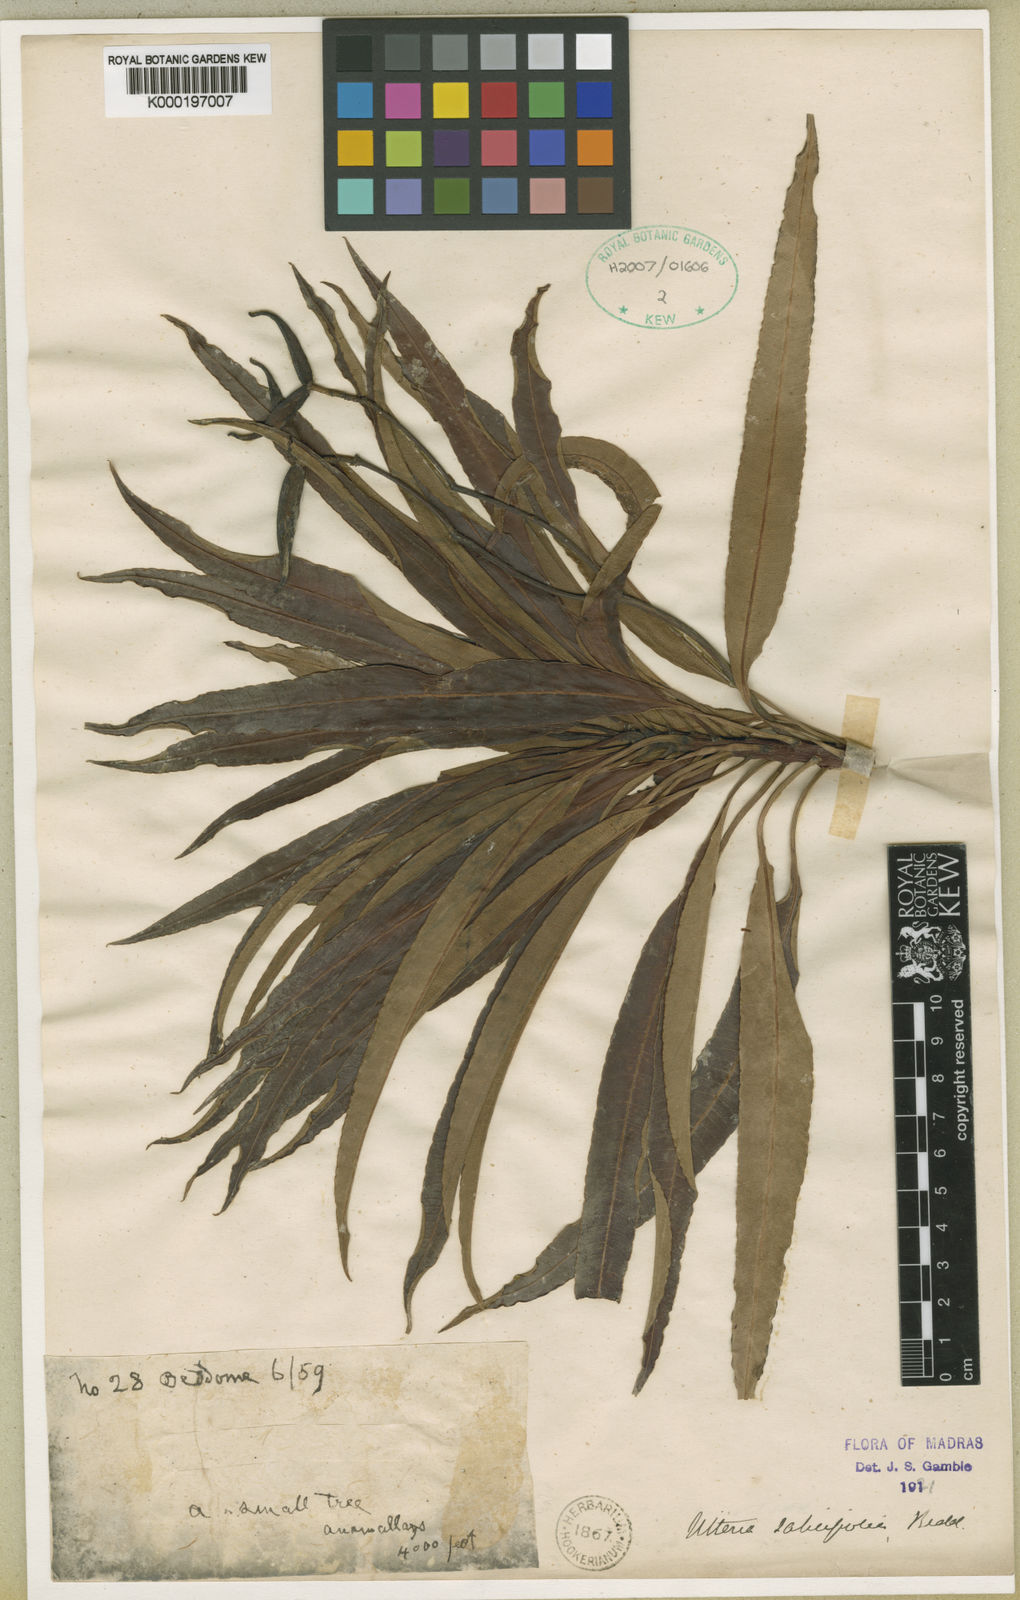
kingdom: Plantae
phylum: Tracheophyta
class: Magnoliopsida
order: Gentianales
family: Apocynaceae
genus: Decalepis
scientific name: Decalepis
